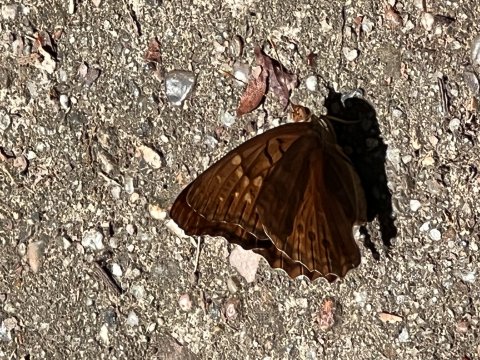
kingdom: Animalia
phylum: Arthropoda
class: Insecta
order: Lepidoptera
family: Nymphalidae
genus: Asterocampa
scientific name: Asterocampa clyton
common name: Tawny Emperor
